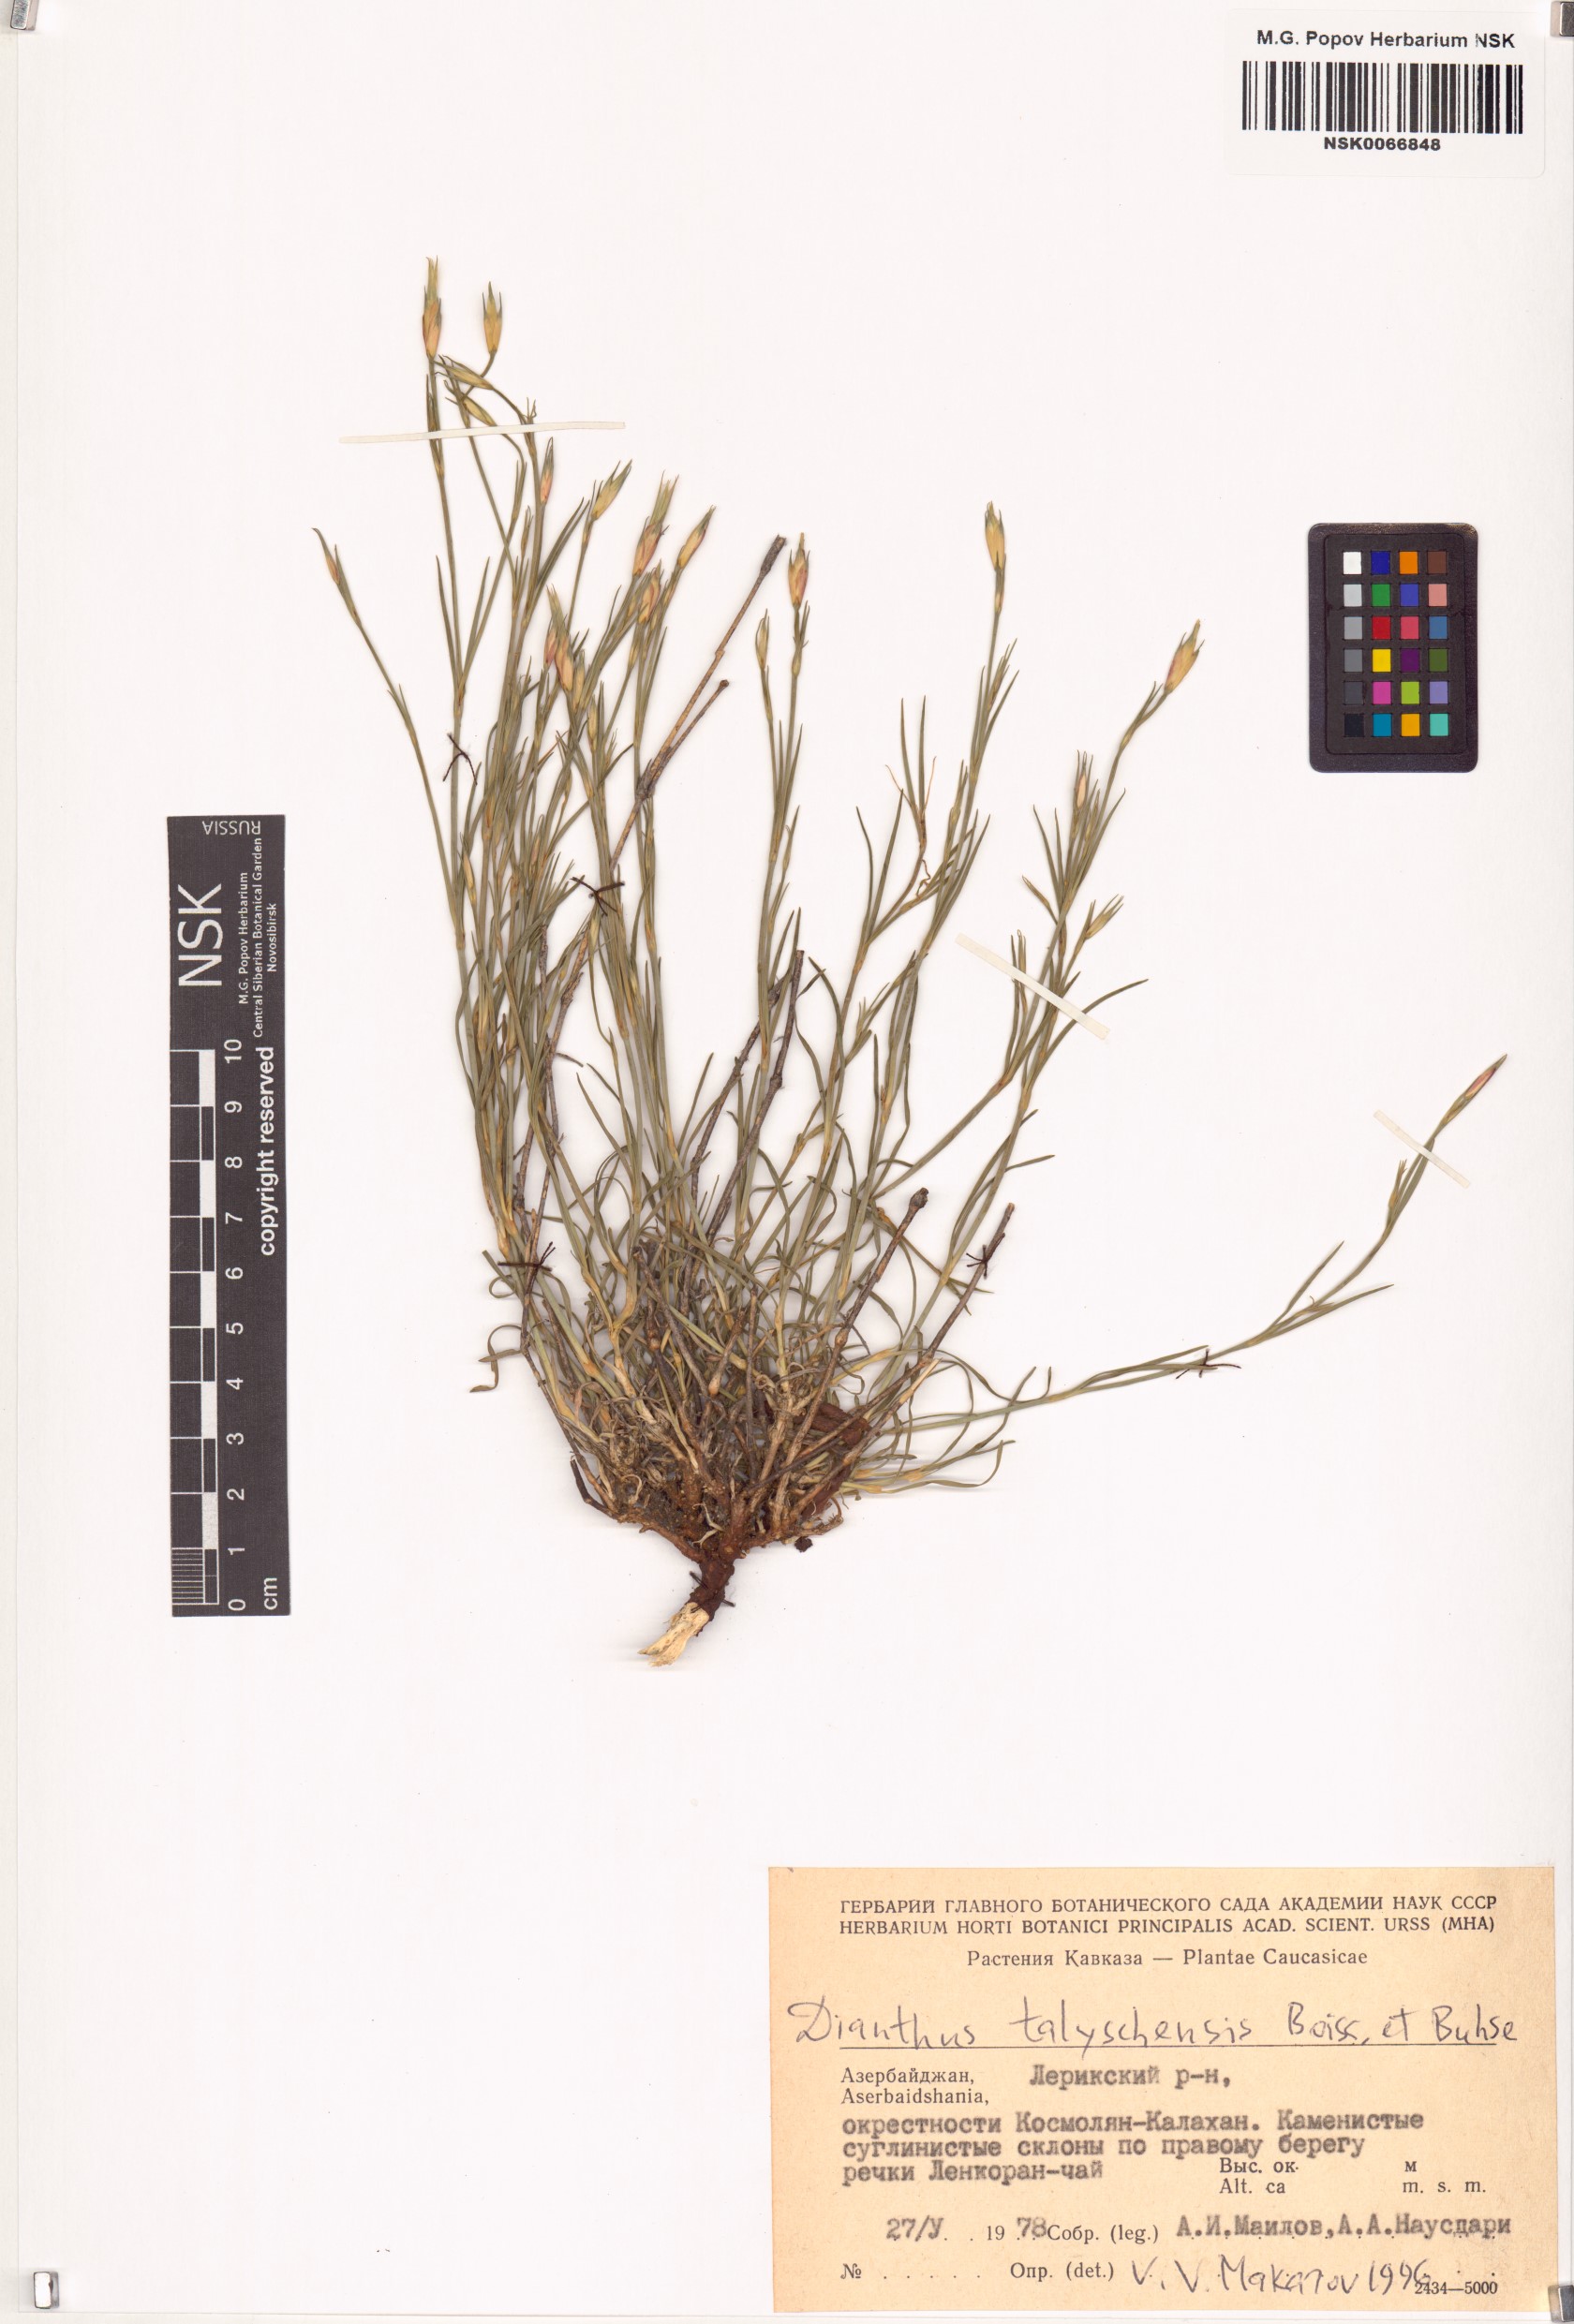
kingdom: Plantae
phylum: Tracheophyta
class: Magnoliopsida
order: Caryophyllales
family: Caryophyllaceae
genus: Dianthus
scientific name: Dianthus talyschensis
